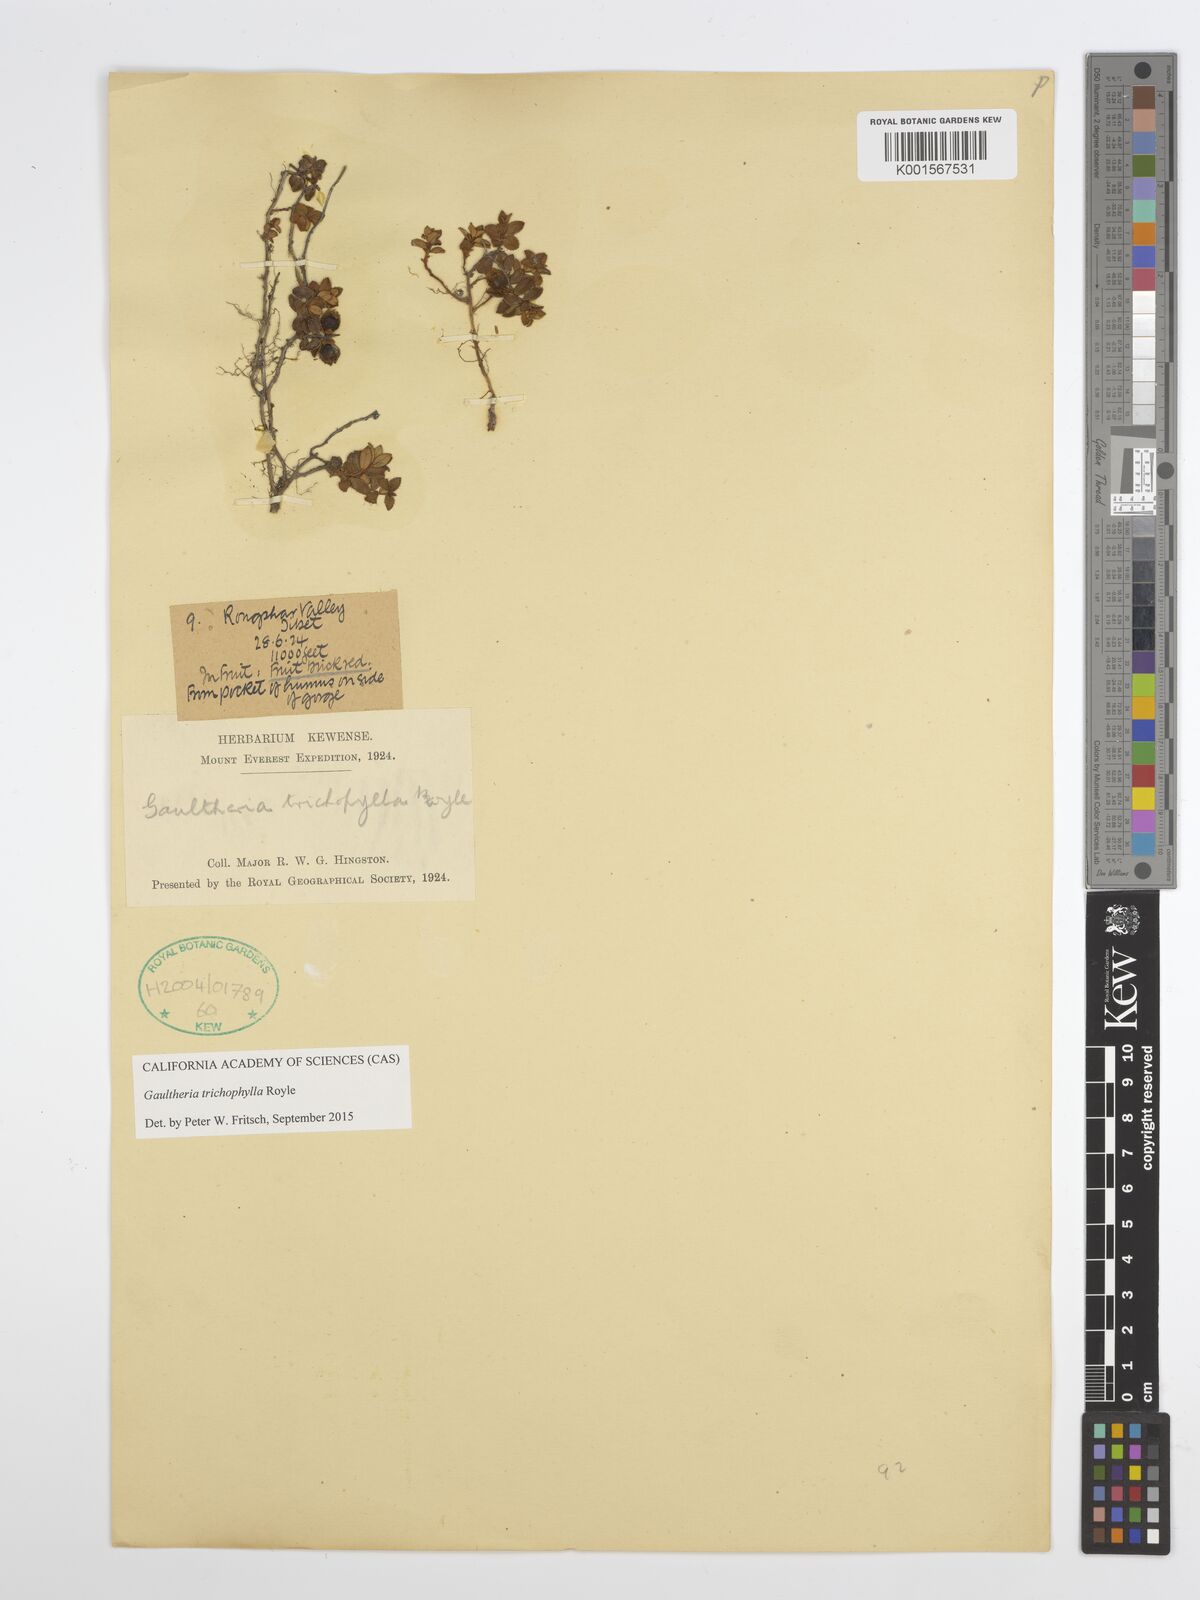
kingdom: Plantae
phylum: Tracheophyta
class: Magnoliopsida
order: Ericales
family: Ericaceae
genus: Gaultheria
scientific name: Gaultheria trichophylla
